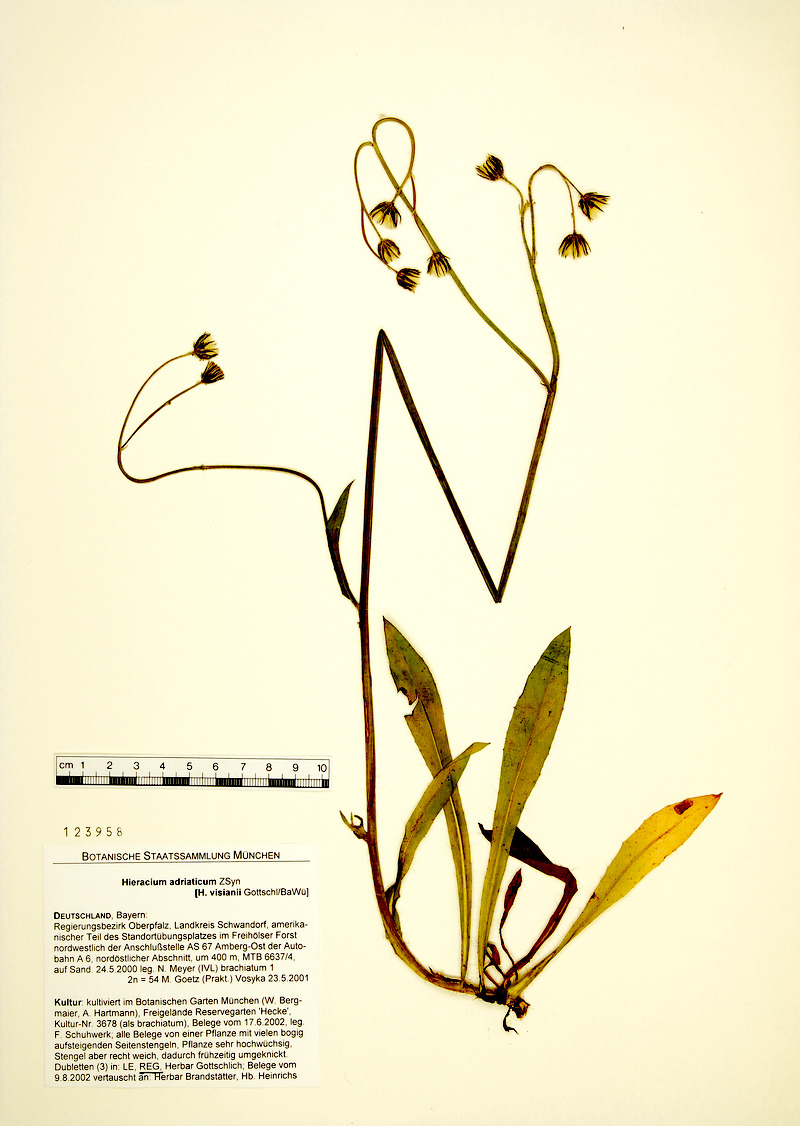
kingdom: Plantae
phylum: Tracheophyta
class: Magnoliopsida
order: Asterales
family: Asteraceae
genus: Pilosella
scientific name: Pilosella visianii
